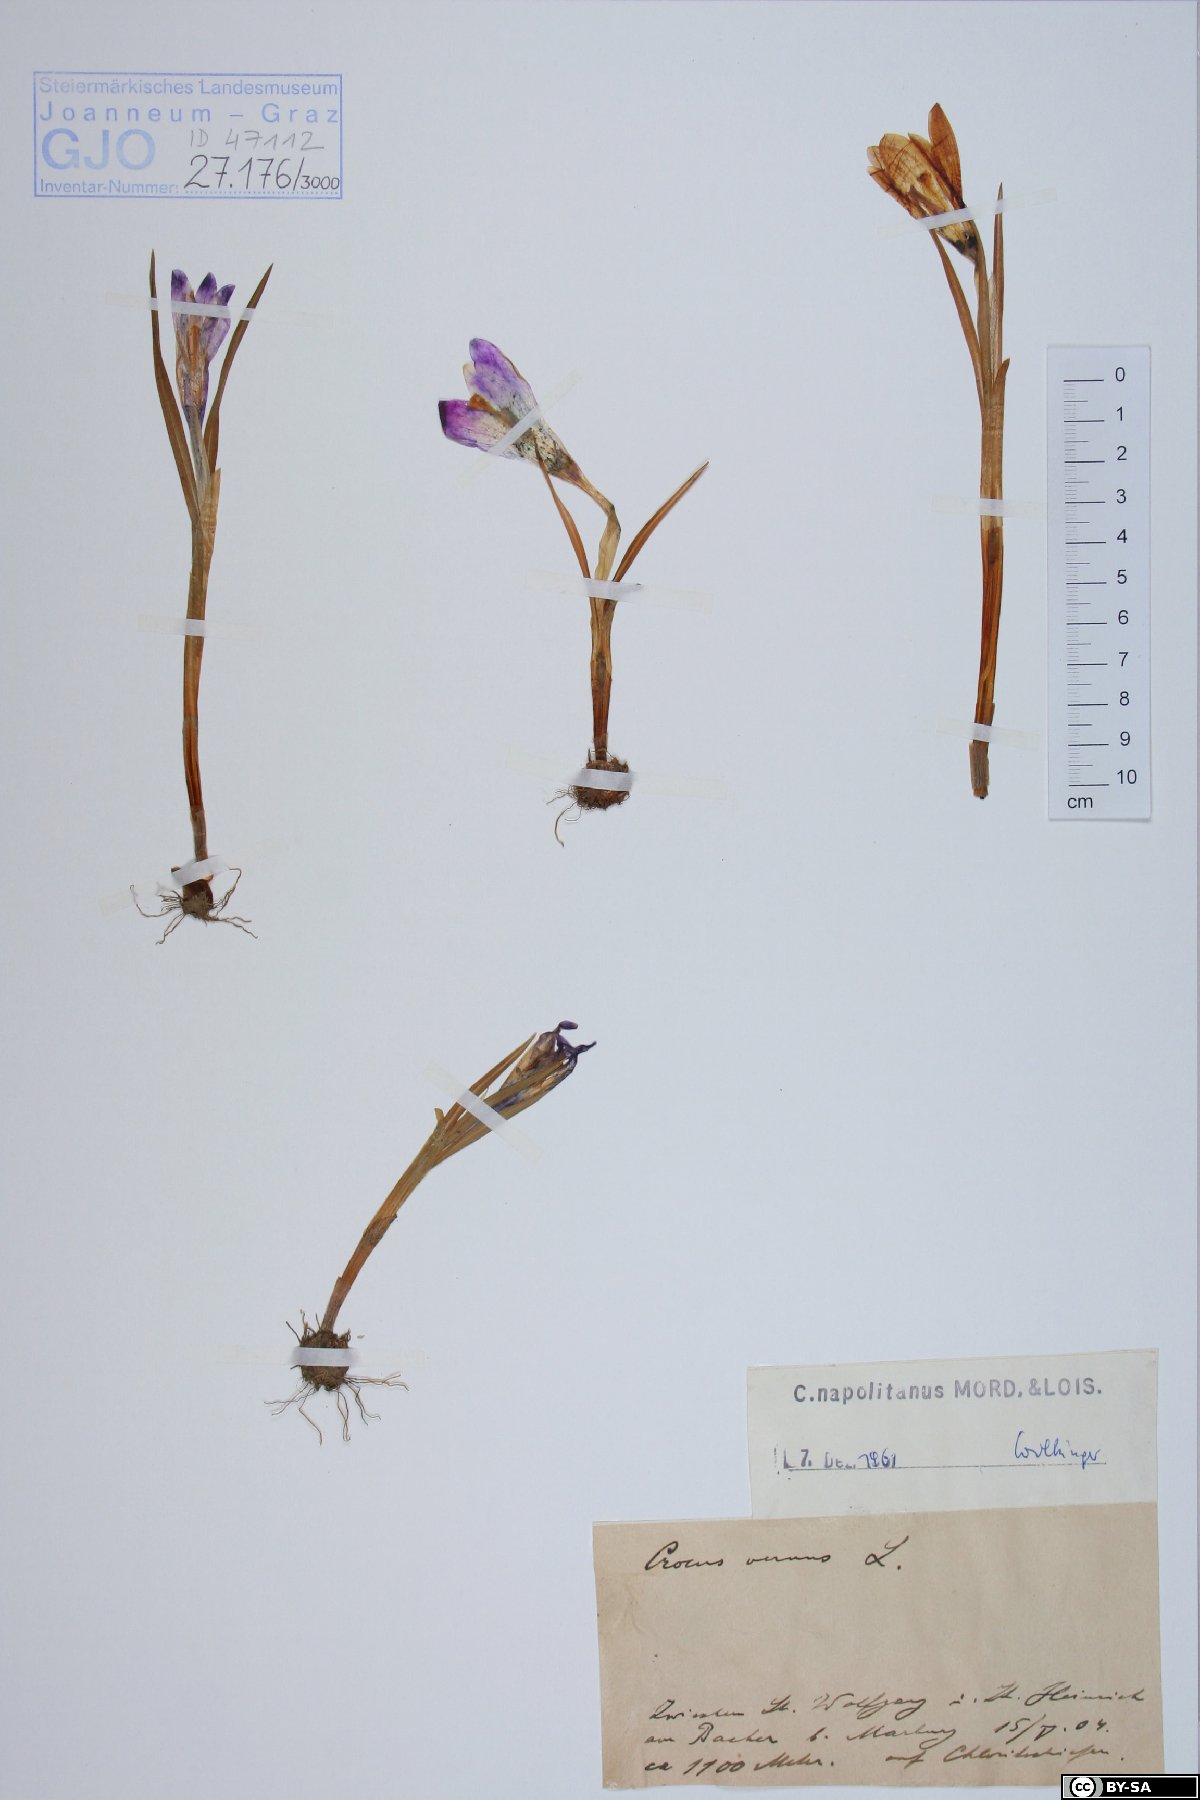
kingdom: Plantae
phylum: Tracheophyta
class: Liliopsida
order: Asparagales
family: Iridaceae
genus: Crocus
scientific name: Crocus vernus
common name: Spring crocus
